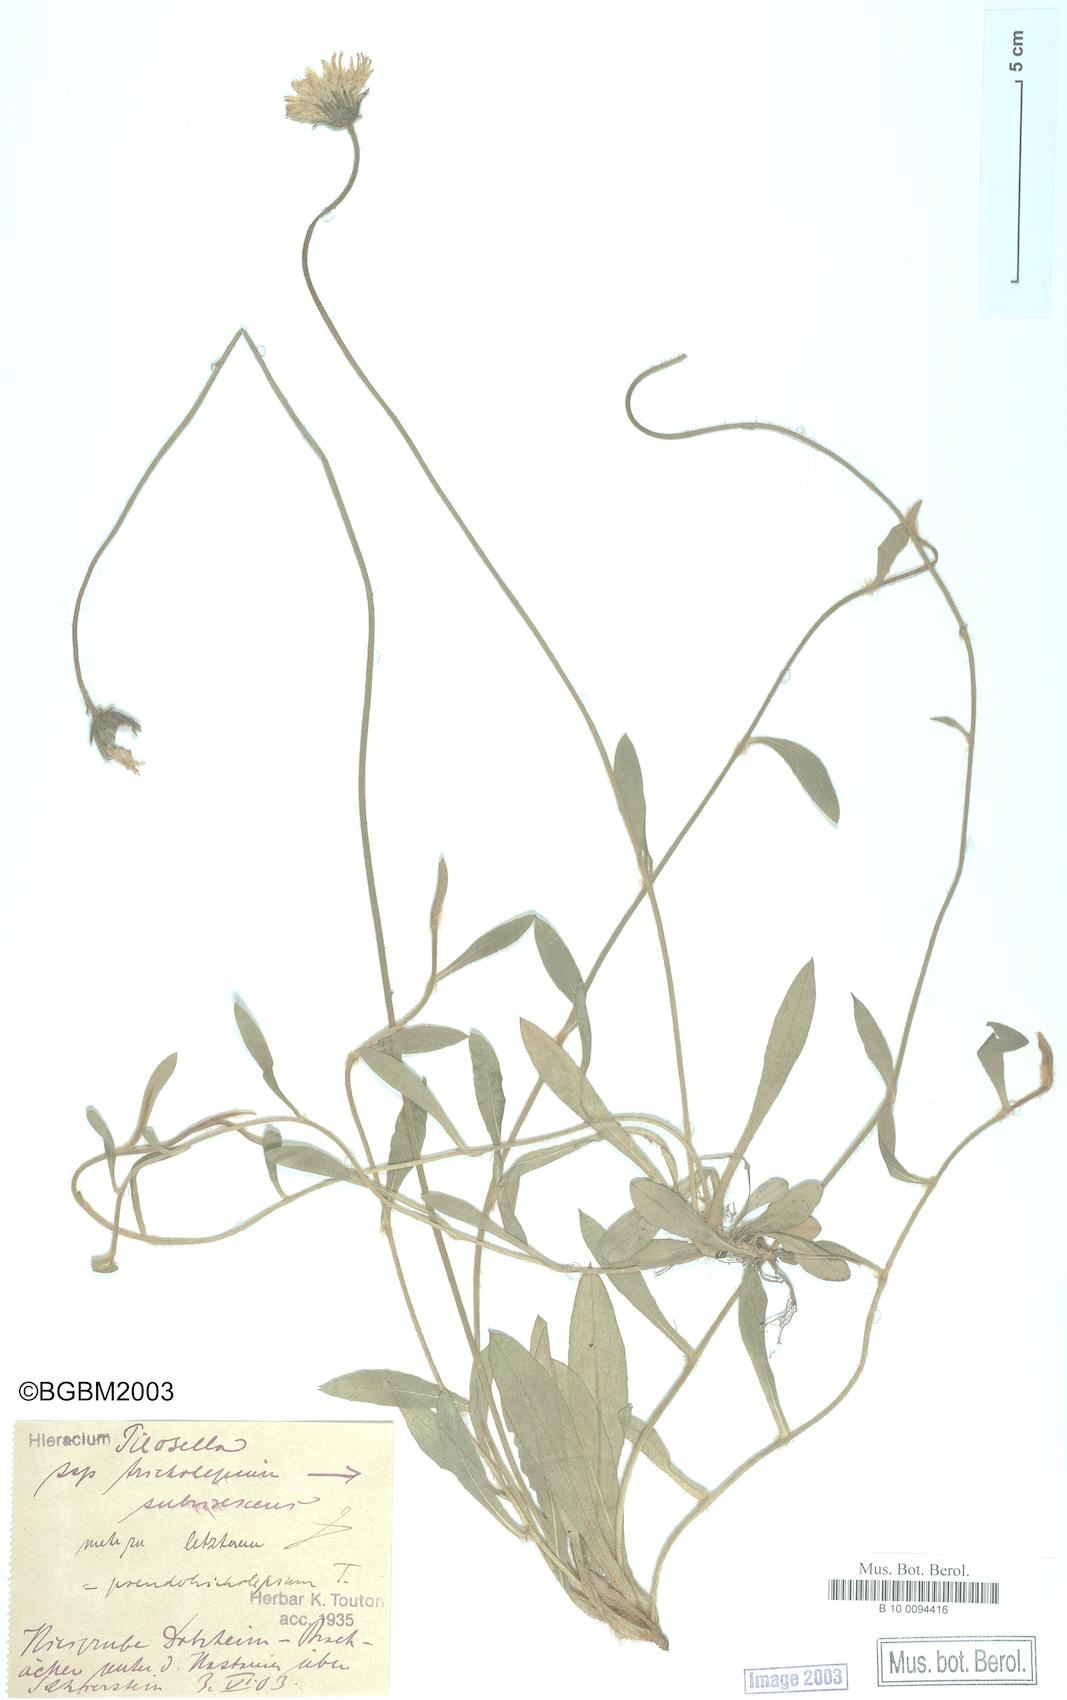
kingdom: Plantae
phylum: Tracheophyta
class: Magnoliopsida
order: Asterales
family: Asteraceae
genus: Pilosella
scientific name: Pilosella officinarum
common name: Mouse-ear hawkweed
